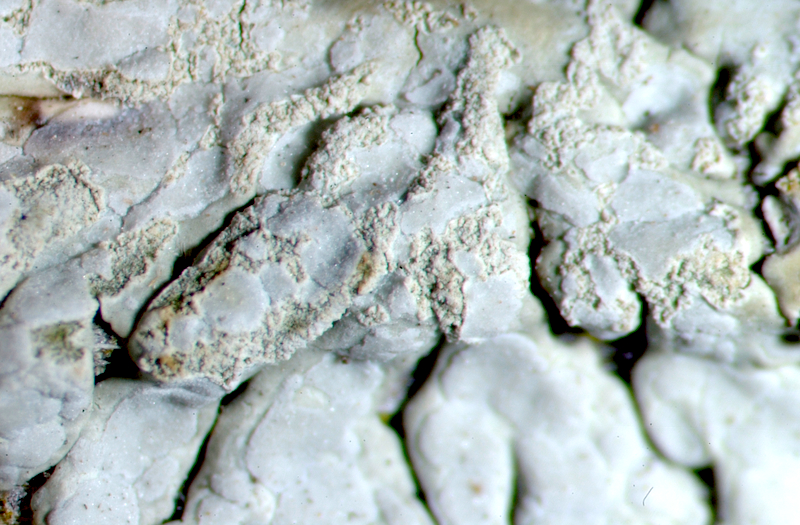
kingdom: Fungi
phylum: Ascomycota
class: Lecanoromycetes
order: Caliciales
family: Caliciaceae
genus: Pyxine
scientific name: Pyxine nubila
